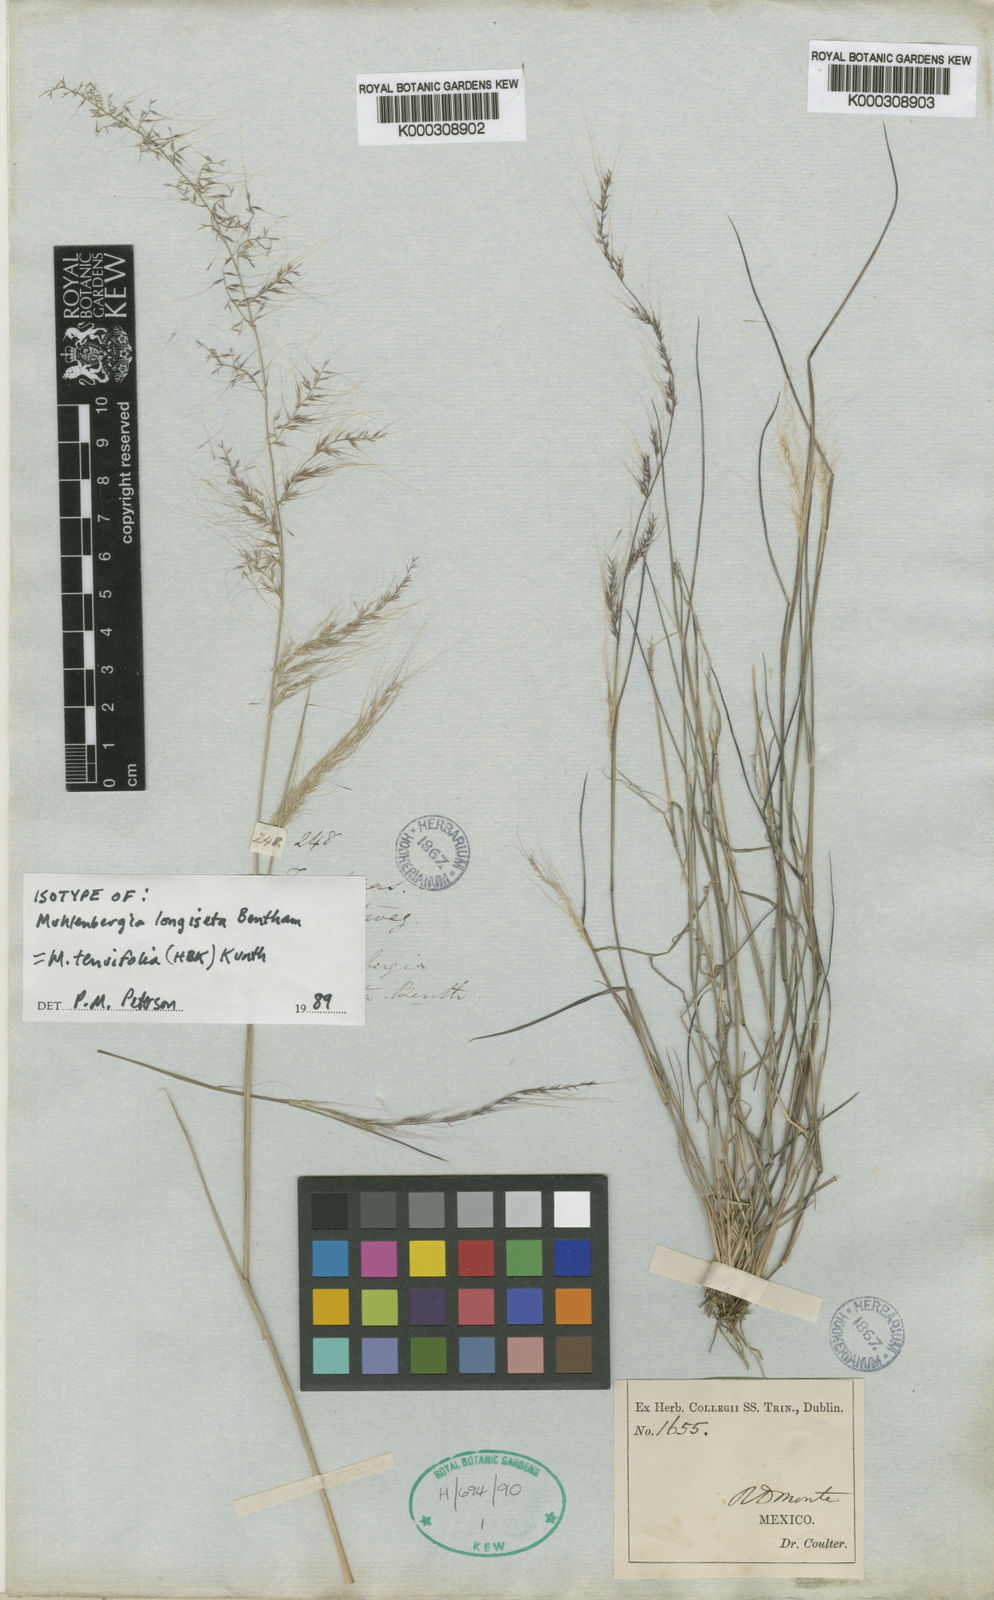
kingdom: Plantae
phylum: Tracheophyta
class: Liliopsida
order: Poales
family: Poaceae
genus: Muhlenbergia
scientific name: Muhlenbergia tenuifolia
